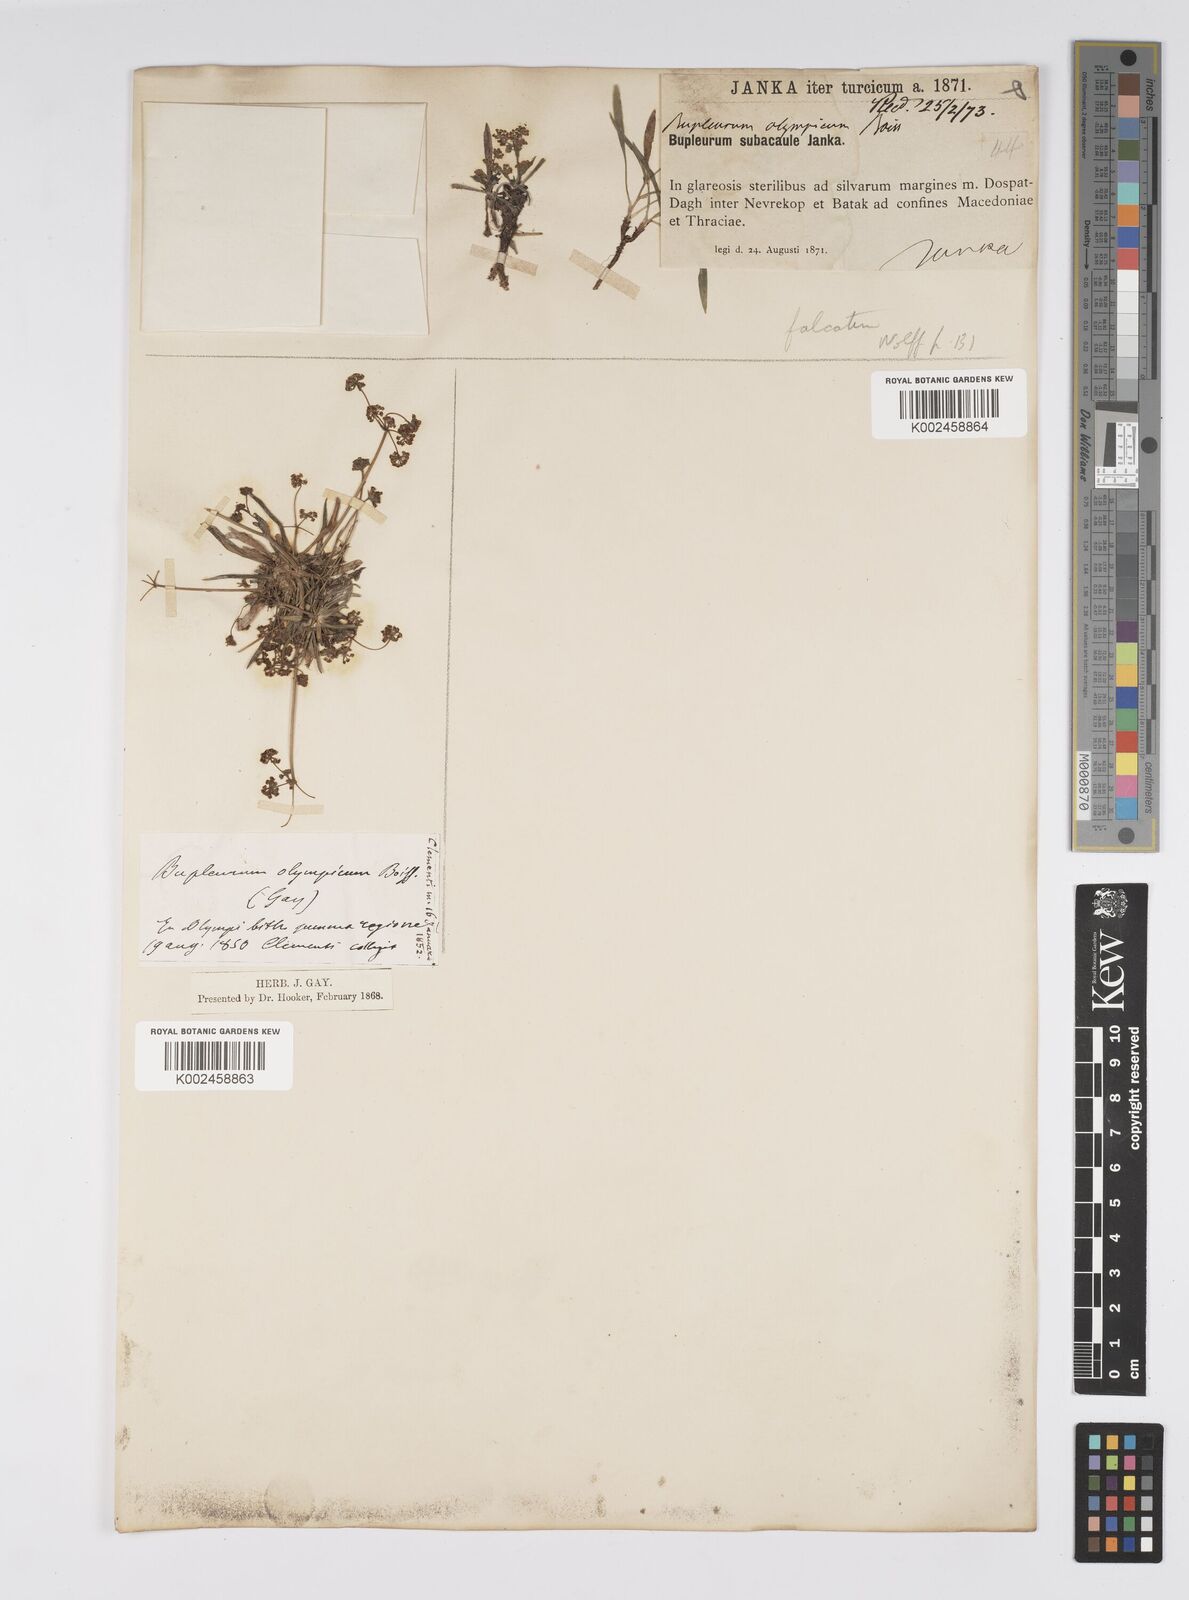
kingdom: Plantae
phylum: Tracheophyta
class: Magnoliopsida
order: Apiales
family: Apiaceae
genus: Bupleurum
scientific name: Bupleurum falcatum
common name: Sickle-leaved hare's-ear
